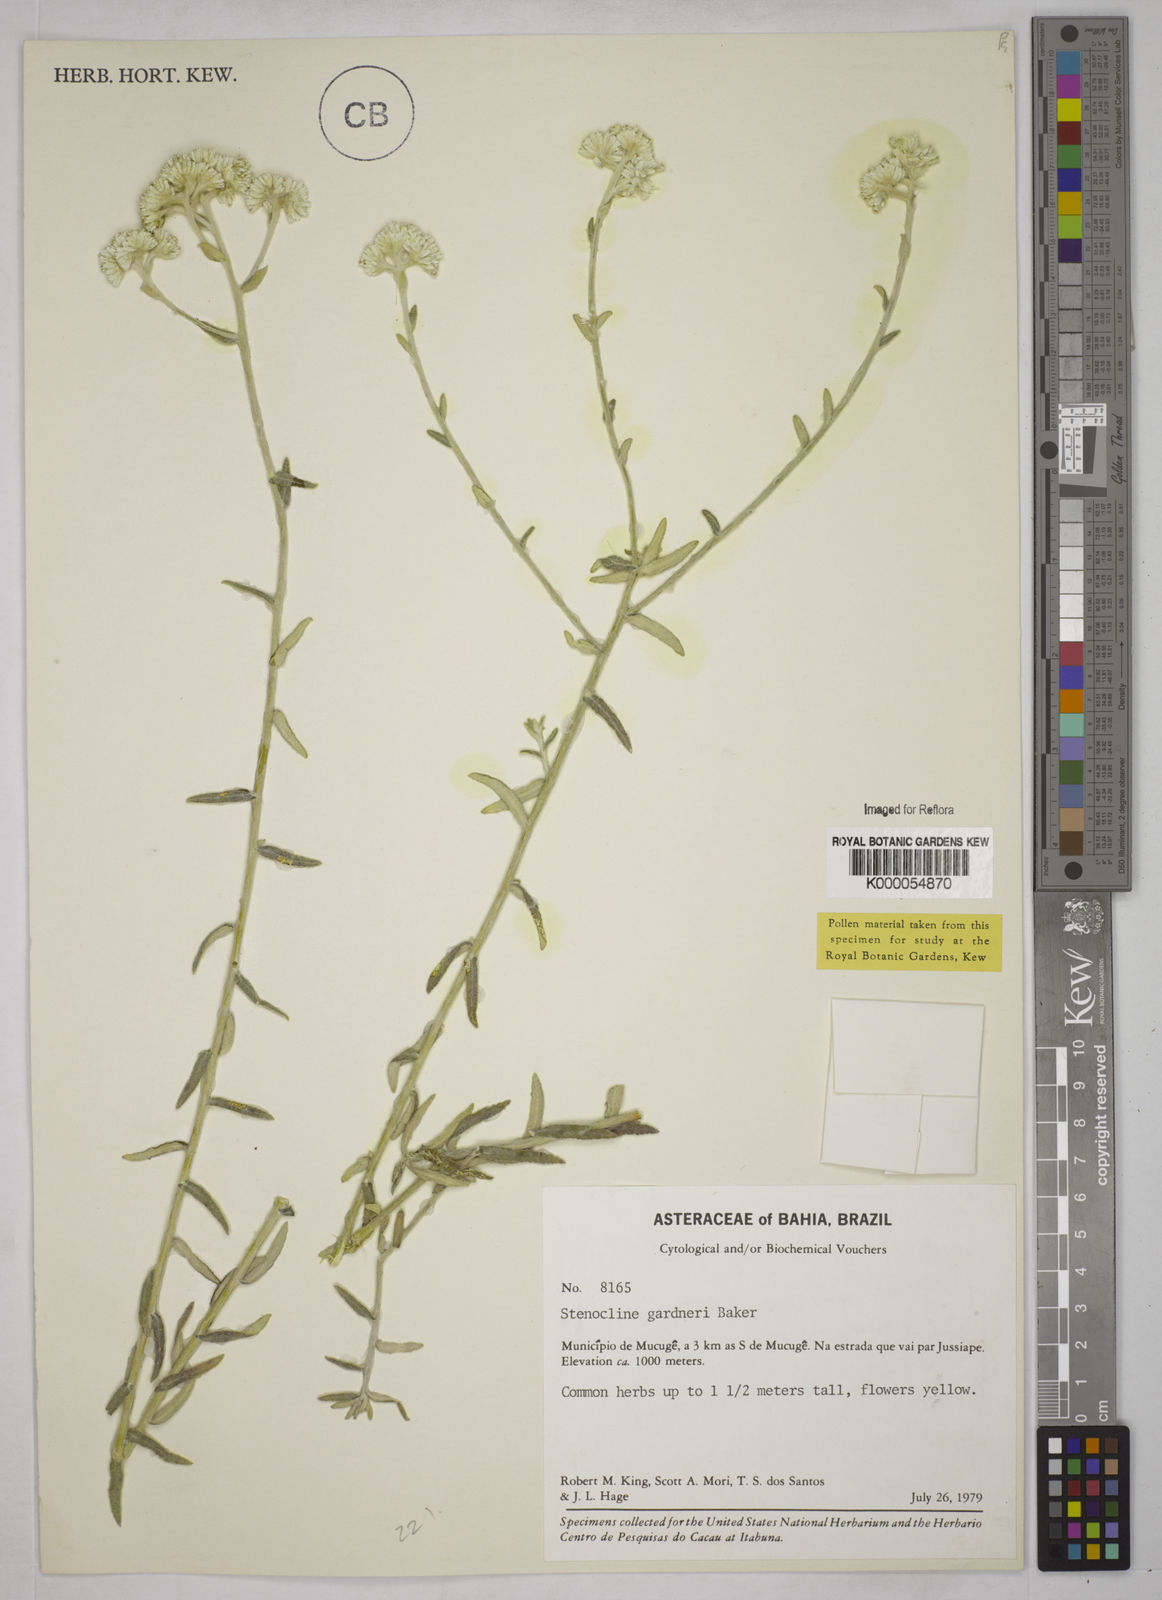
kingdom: Plantae
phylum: Tracheophyta
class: Magnoliopsida
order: Asterales
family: Asteraceae
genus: Achyrocline
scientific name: Achyrocline gardneri
